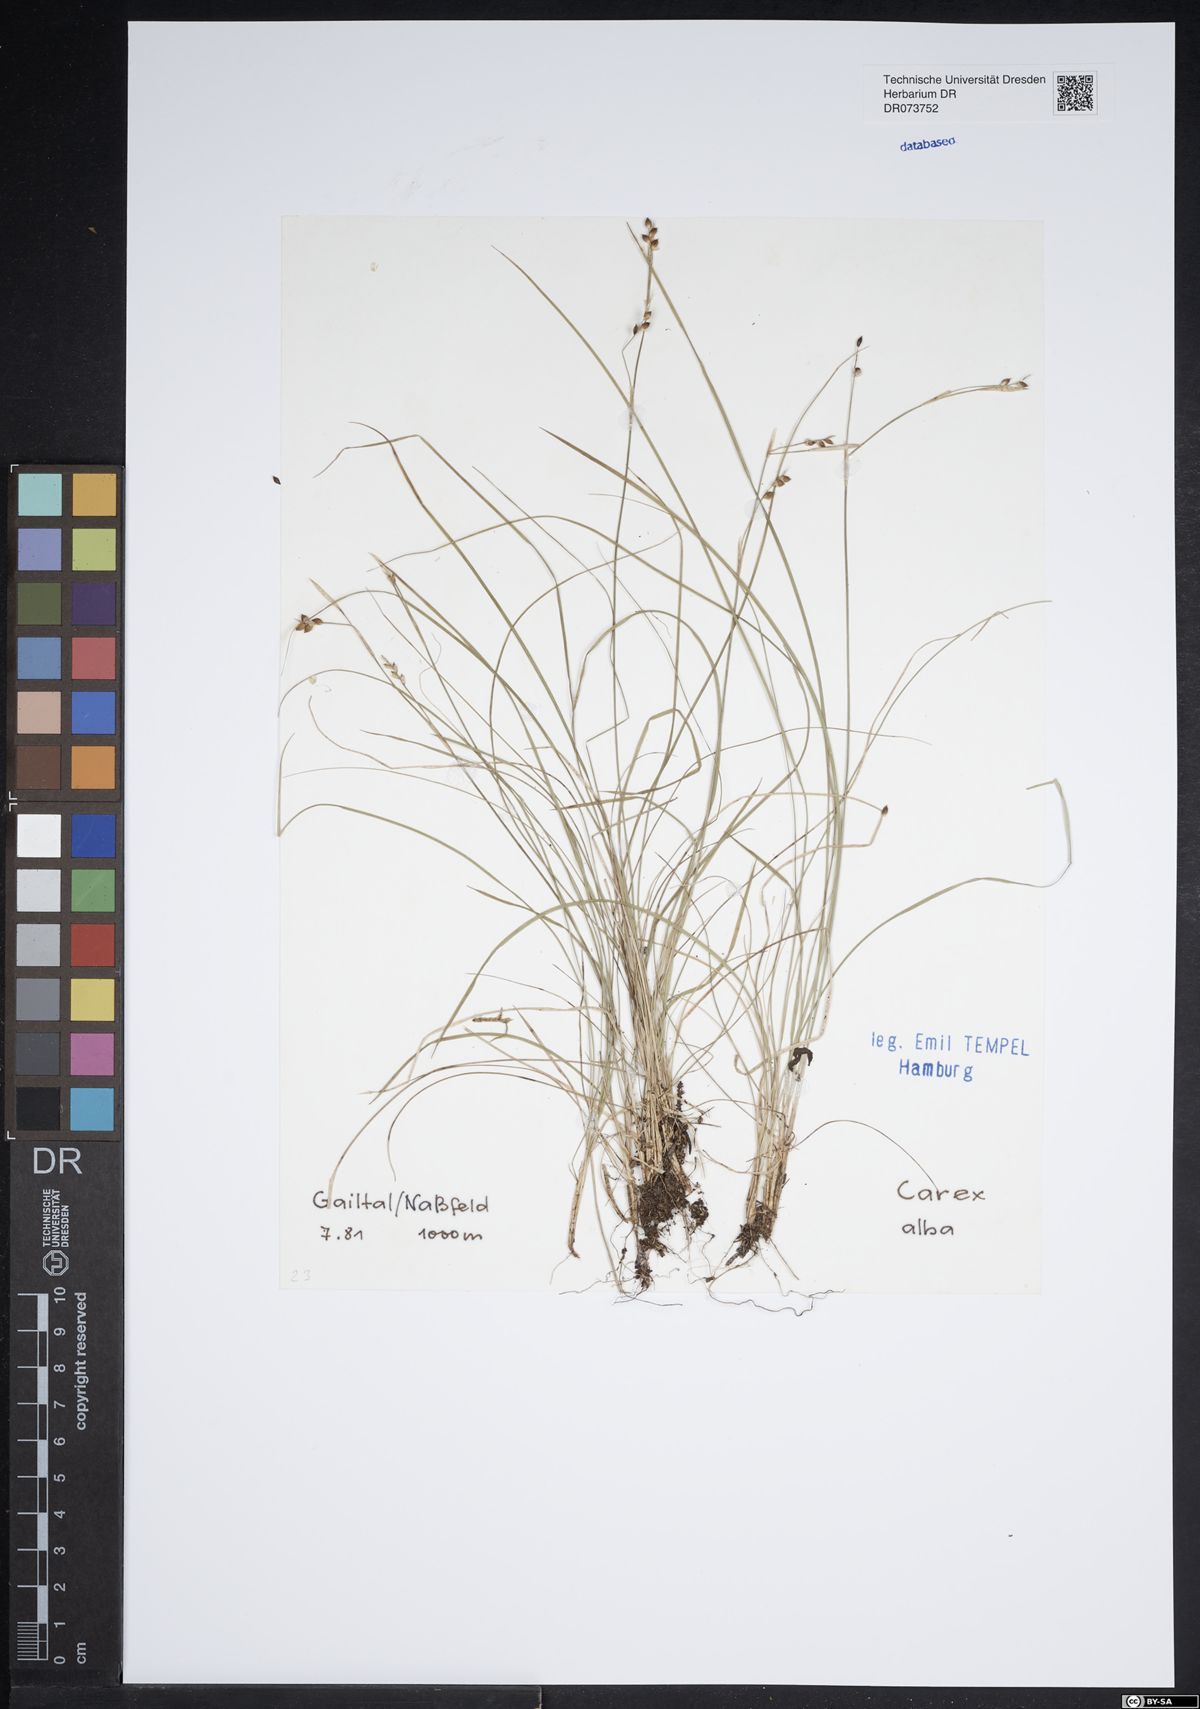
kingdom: Plantae
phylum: Tracheophyta
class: Liliopsida
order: Poales
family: Cyperaceae
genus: Carex
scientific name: Carex alba
